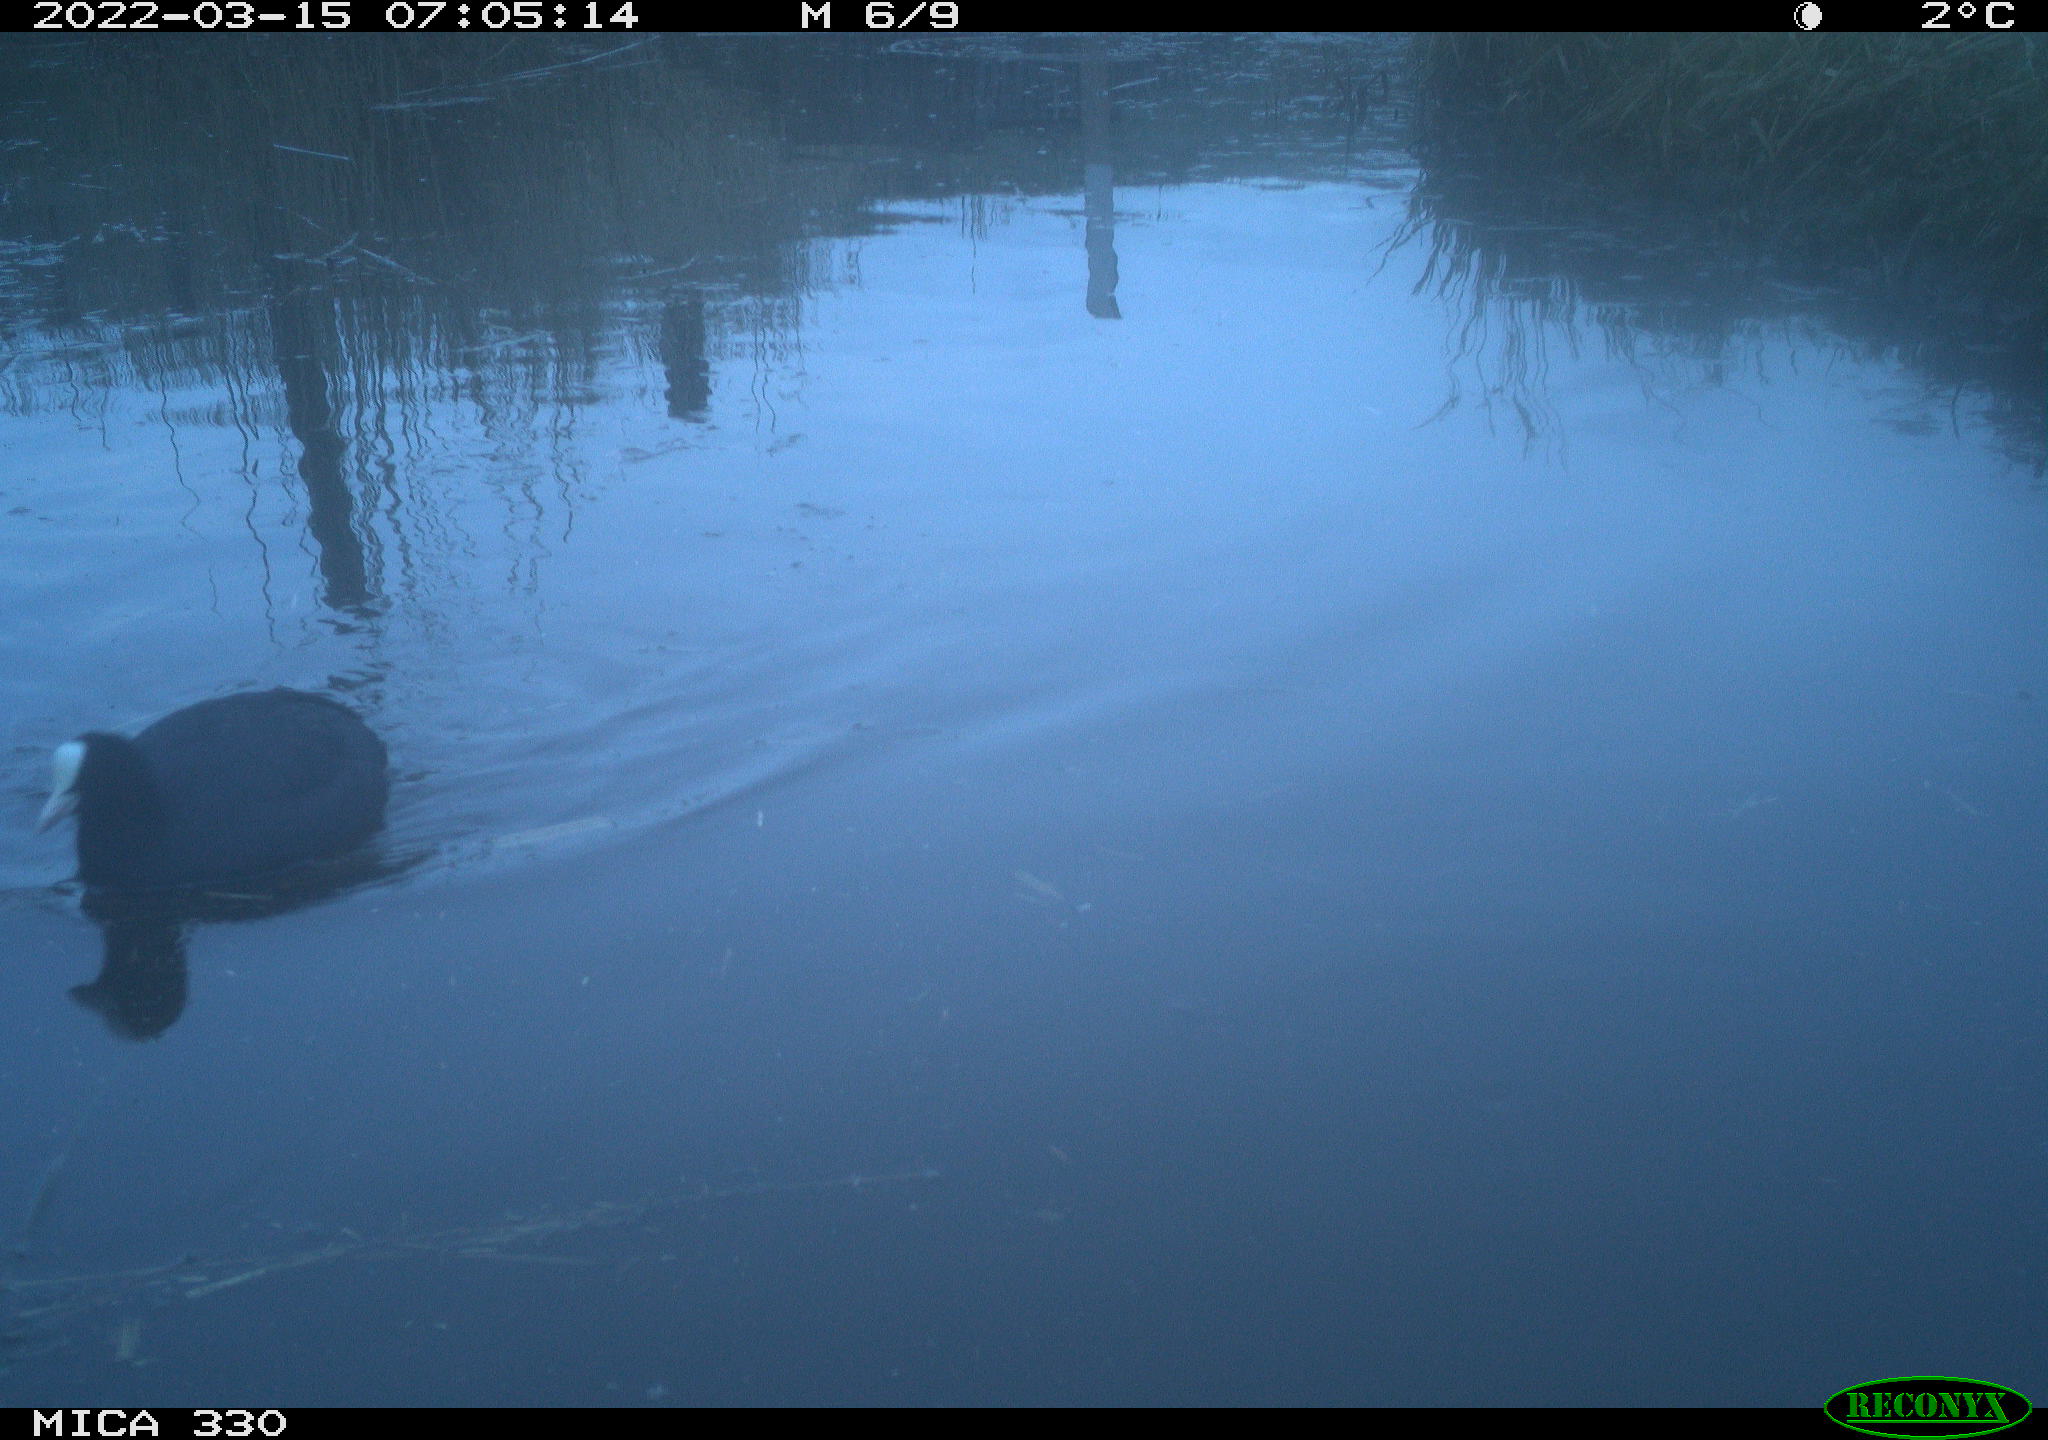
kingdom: Animalia
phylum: Chordata
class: Aves
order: Gruiformes
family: Rallidae
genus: Fulica
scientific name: Fulica atra
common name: Eurasian coot
